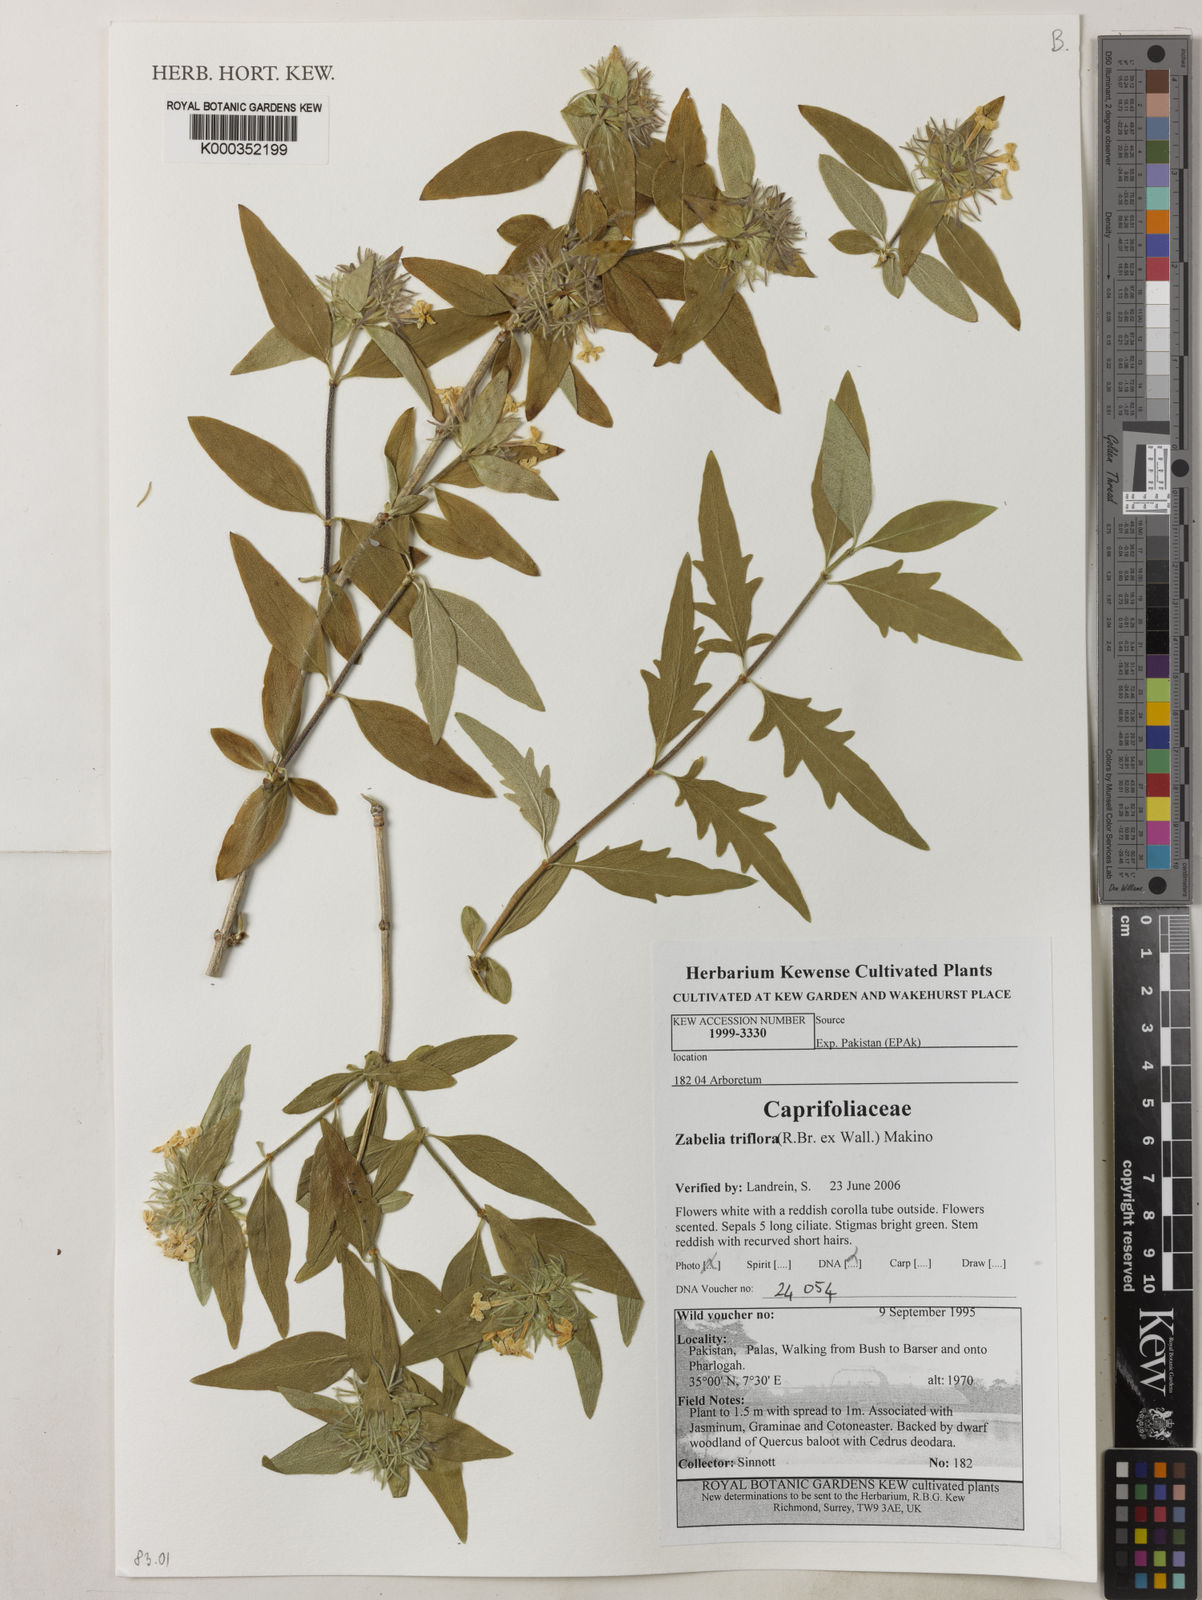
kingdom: Plantae
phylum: Tracheophyta
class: Magnoliopsida
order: Gentianales
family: Rubiaceae
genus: Rudgea
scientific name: Rudgea poeppigii
